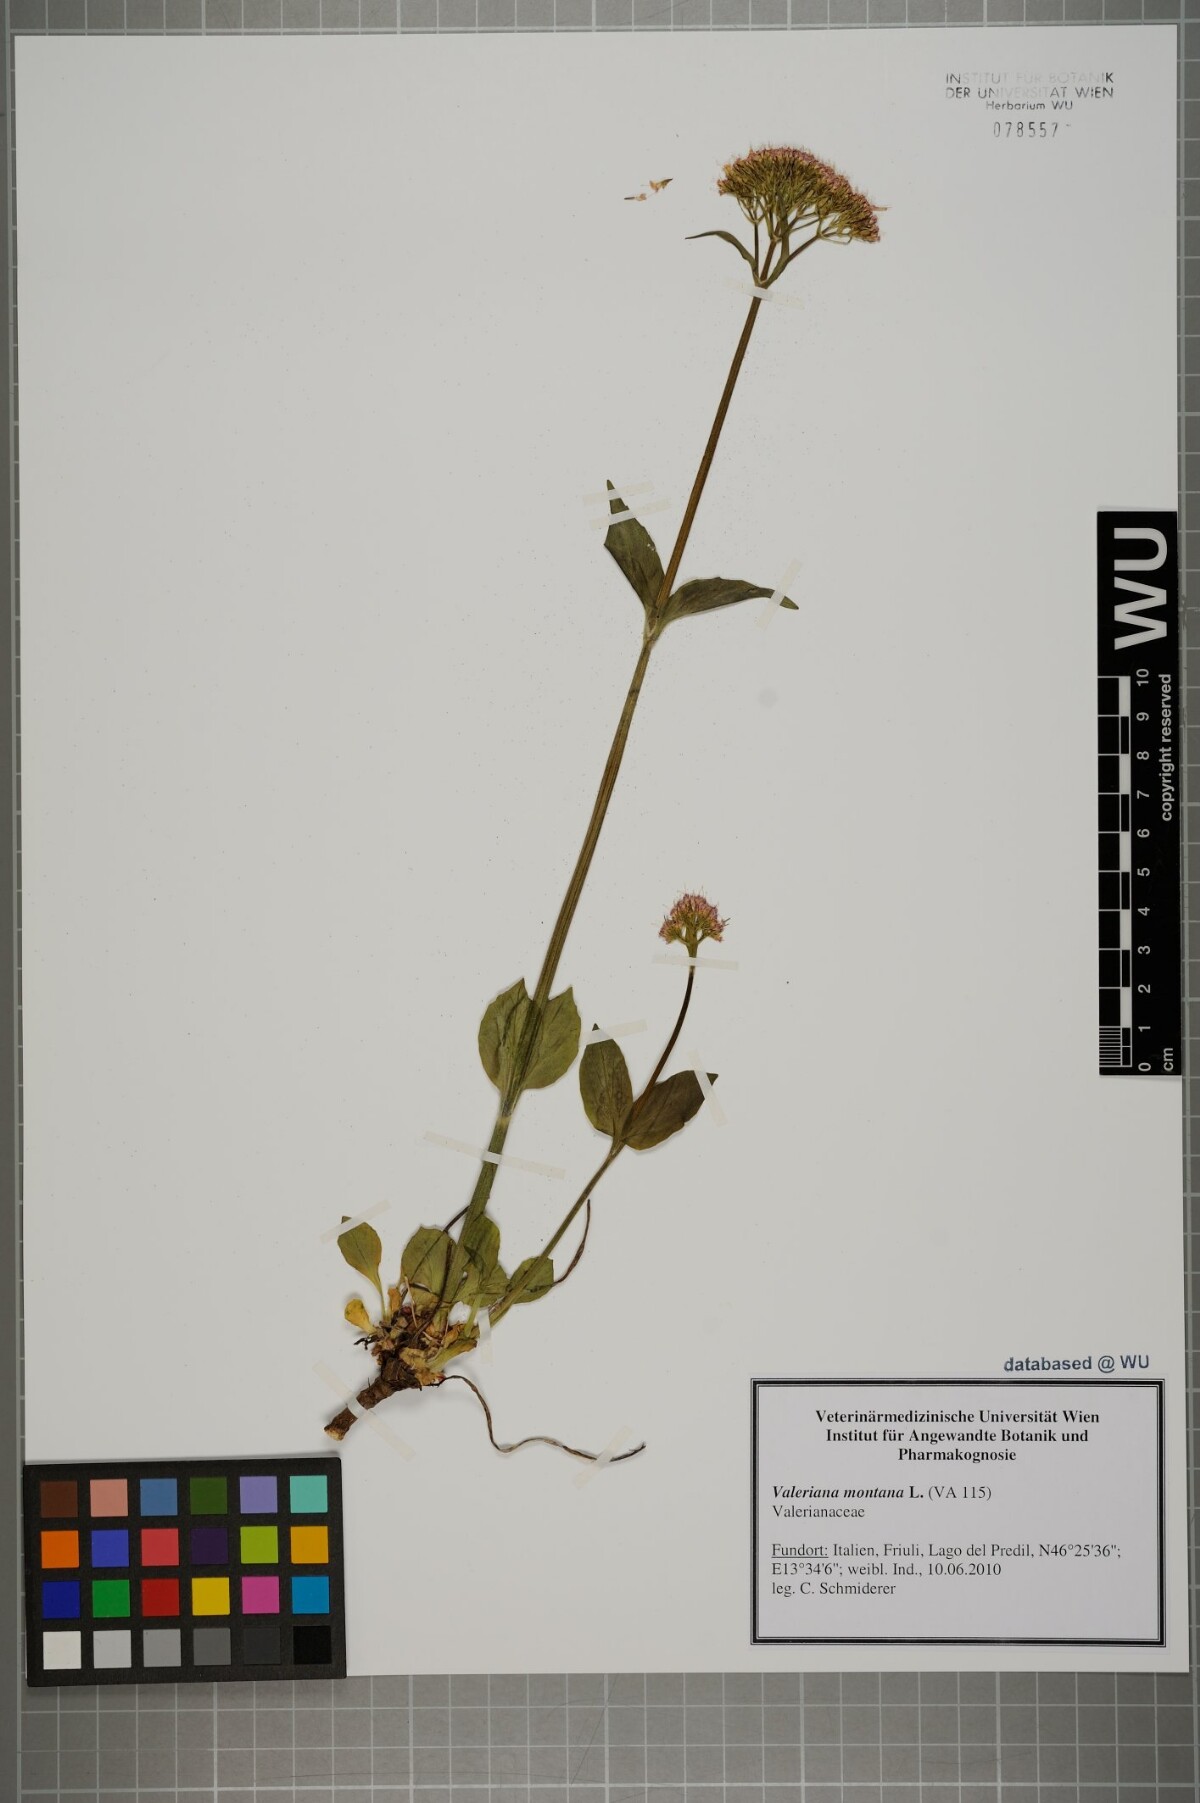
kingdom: Plantae
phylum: Tracheophyta
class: Magnoliopsida
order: Dipsacales
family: Caprifoliaceae
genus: Valeriana
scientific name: Valeriana montana
